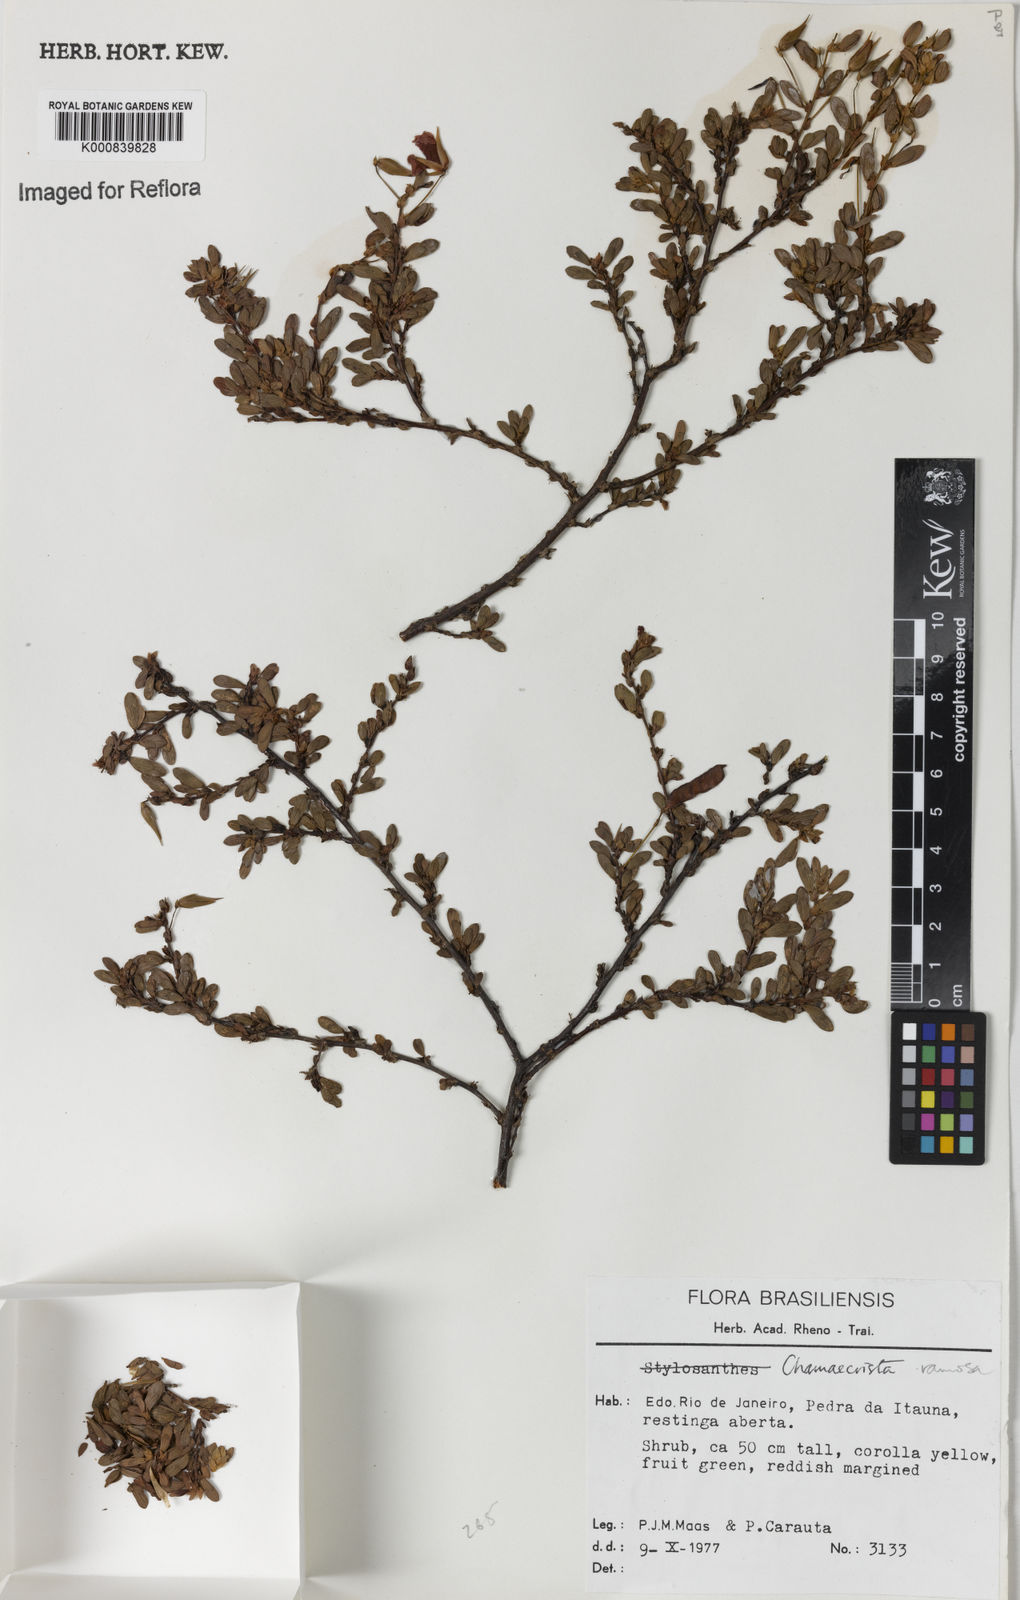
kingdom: Plantae
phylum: Tracheophyta
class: Magnoliopsida
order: Fabales
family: Fabaceae
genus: Chamaecrista
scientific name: Chamaecrista ramosa
